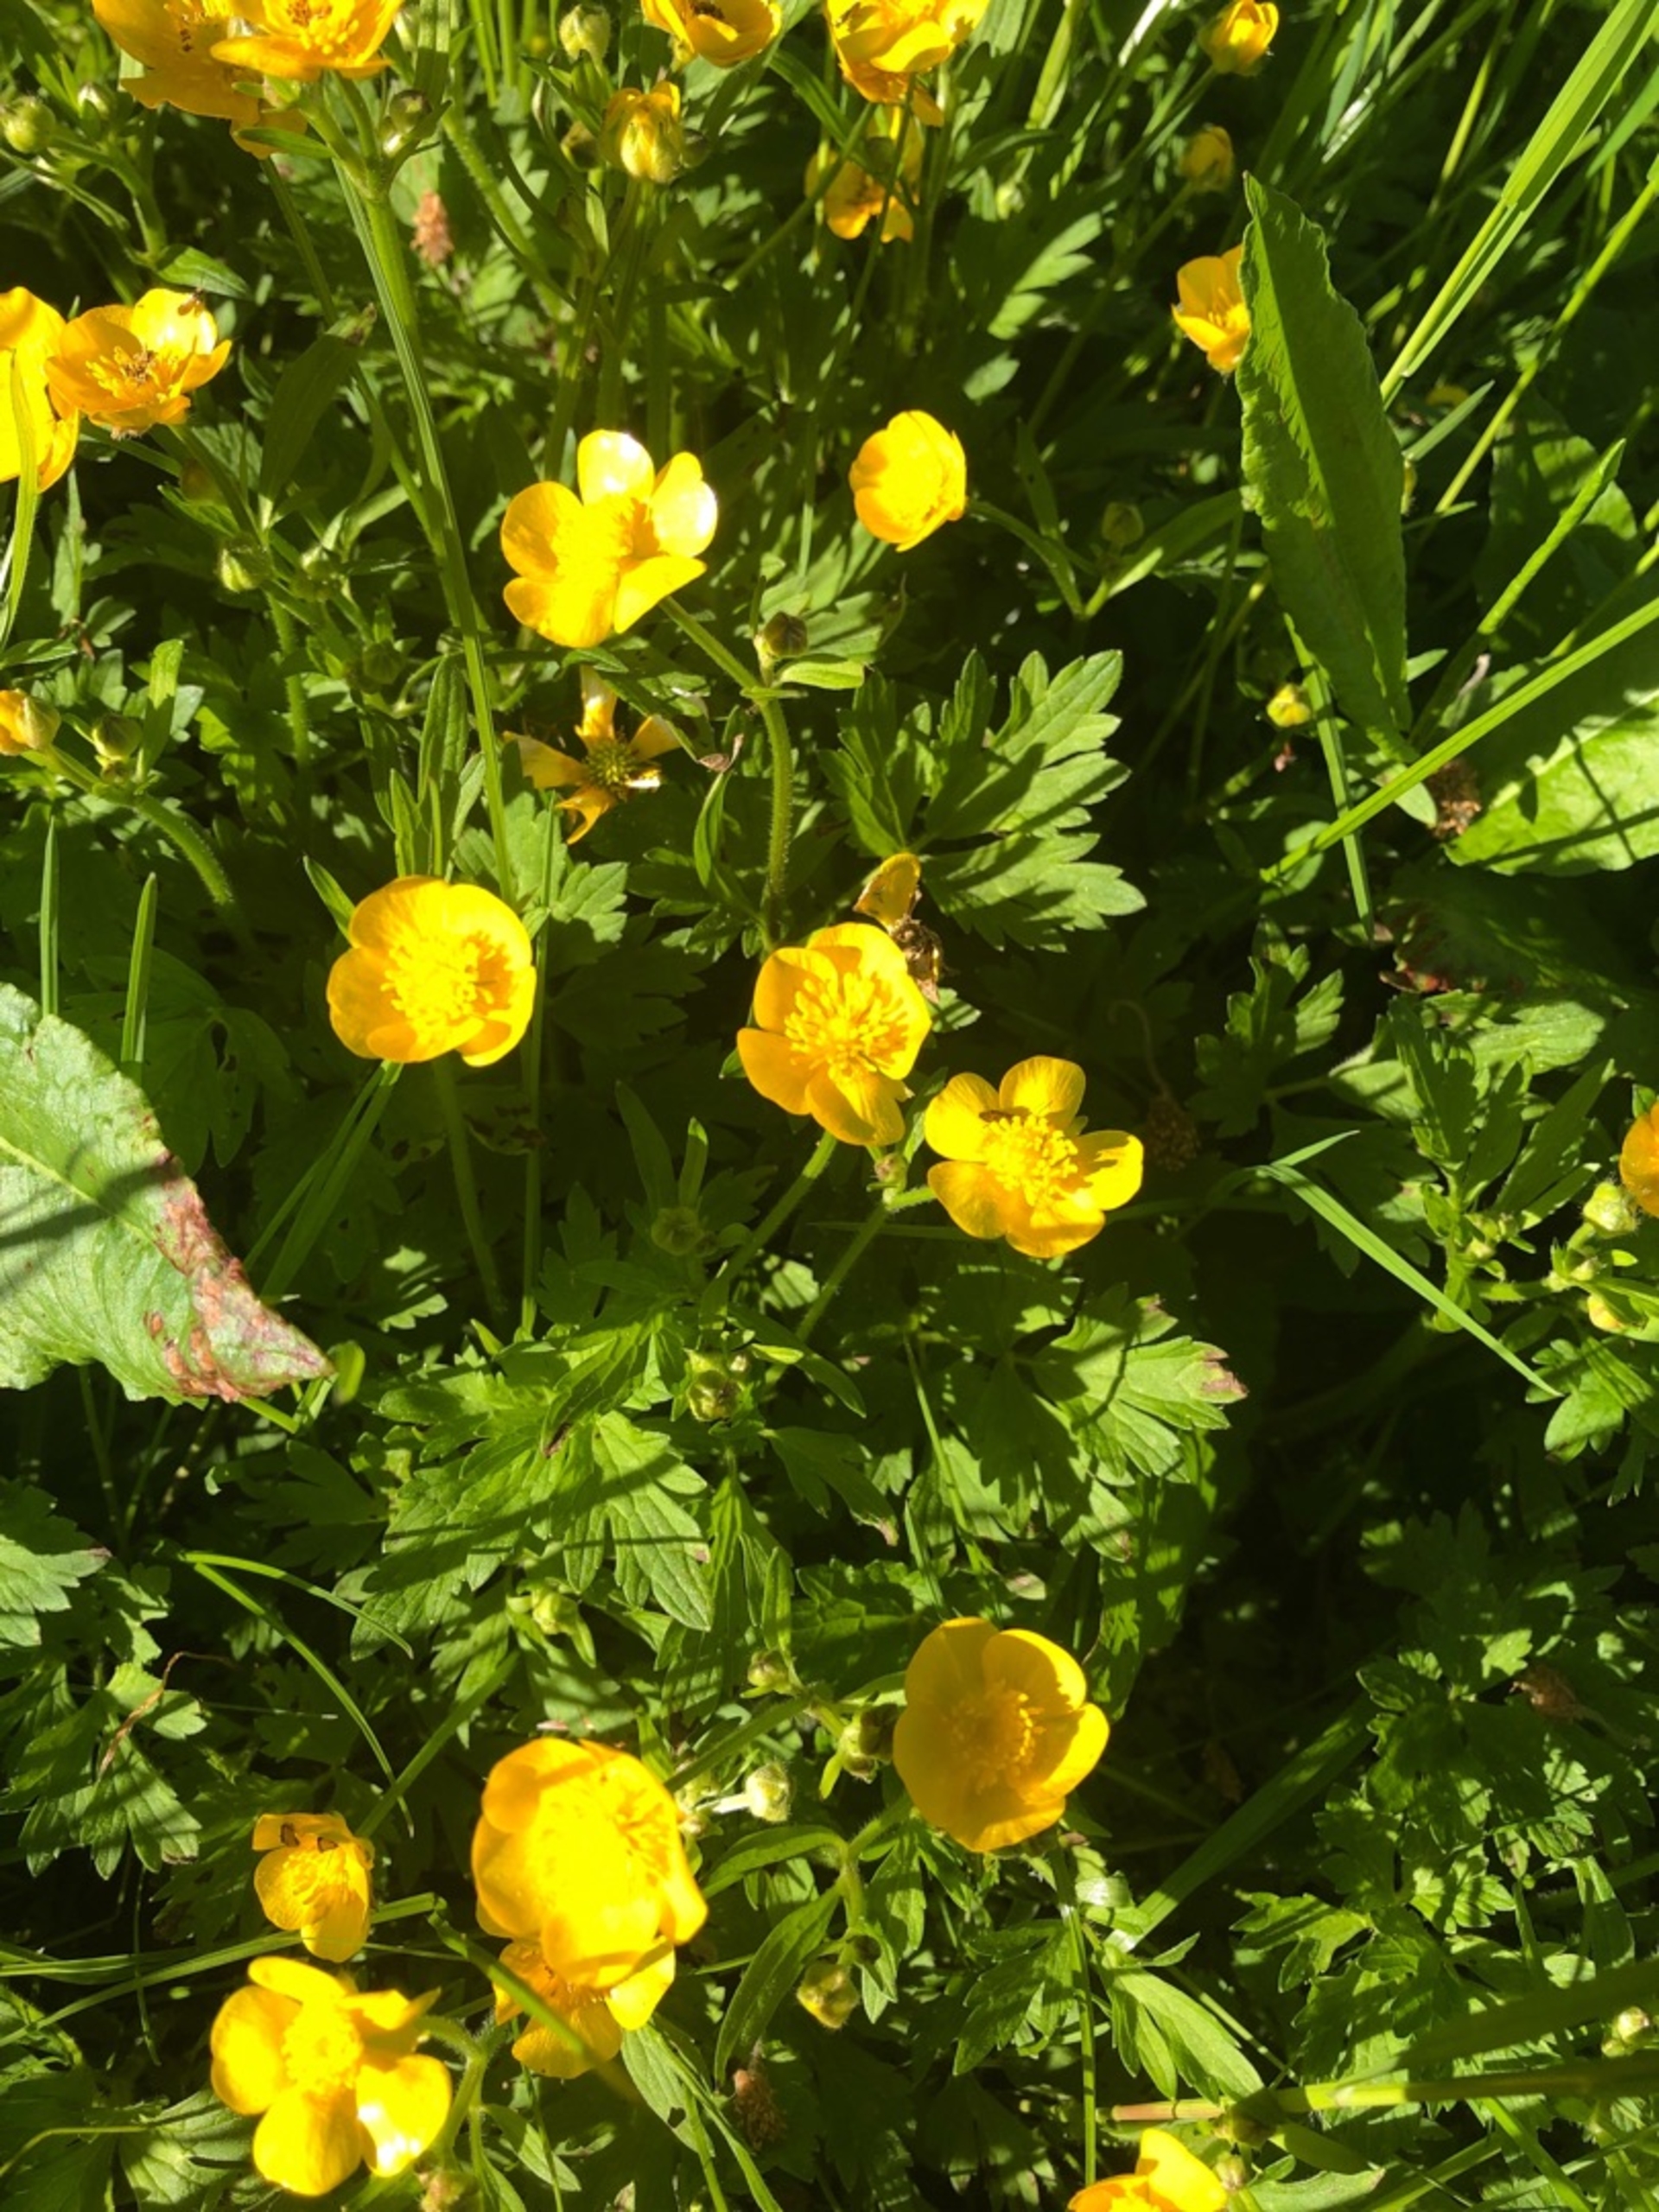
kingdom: Plantae
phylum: Tracheophyta
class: Magnoliopsida
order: Ranunculales
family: Ranunculaceae
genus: Ranunculus
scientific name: Ranunculus repens
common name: Lav ranunkel
